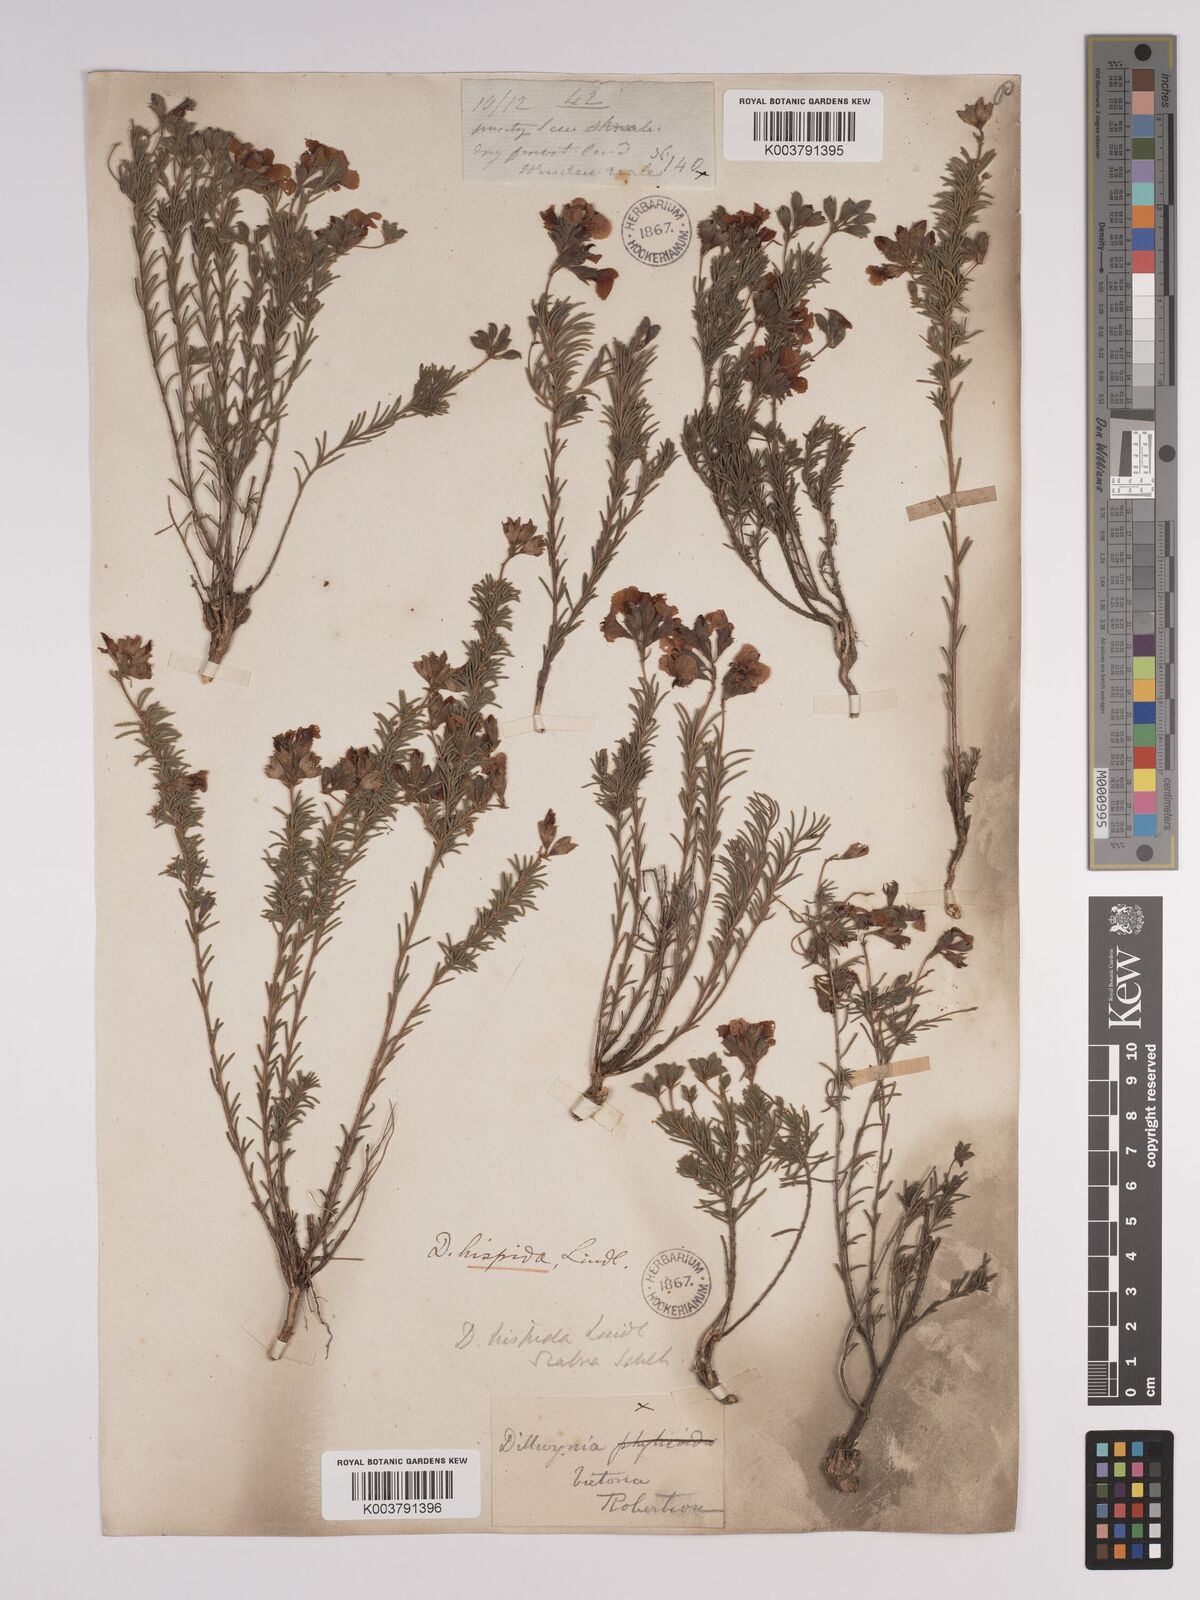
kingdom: Plantae
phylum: Tracheophyta
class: Magnoliopsida
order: Fabales
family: Fabaceae
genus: Dillwynia
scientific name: Dillwynia hispida
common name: Red parrot-pea
